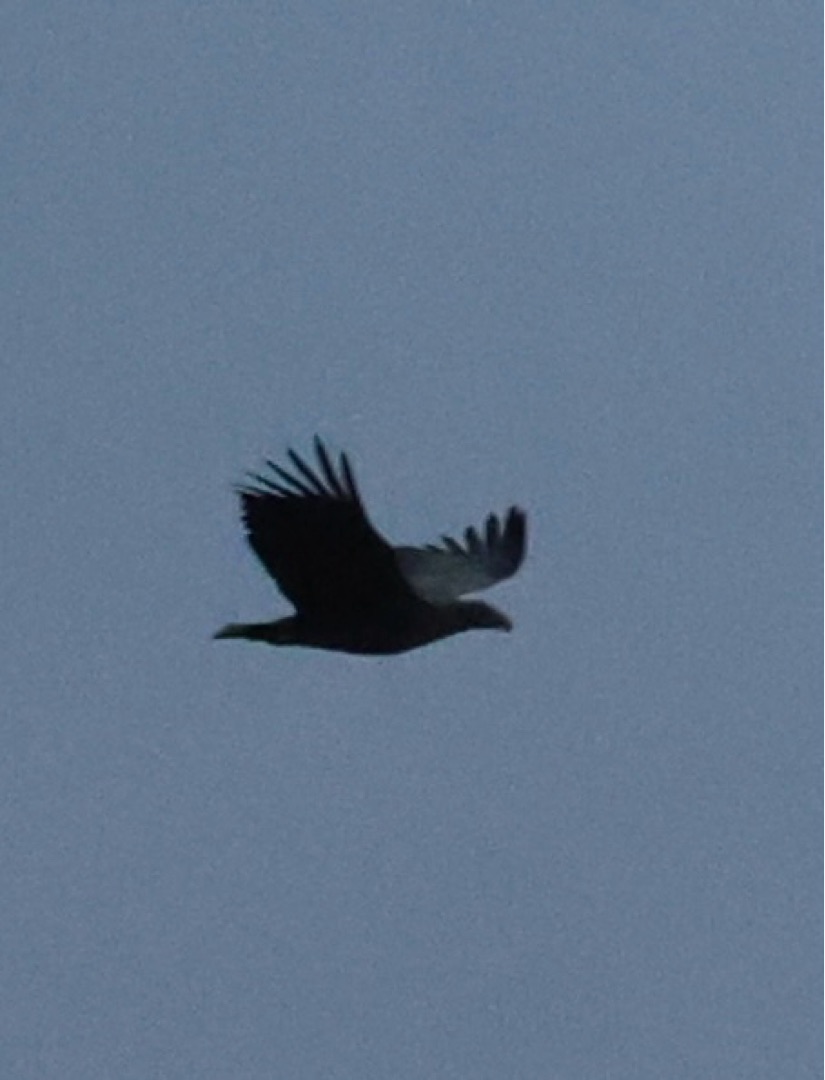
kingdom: Animalia
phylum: Chordata
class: Aves
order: Accipitriformes
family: Accipitridae
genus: Haliaeetus
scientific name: Haliaeetus albicilla
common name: Havørn
